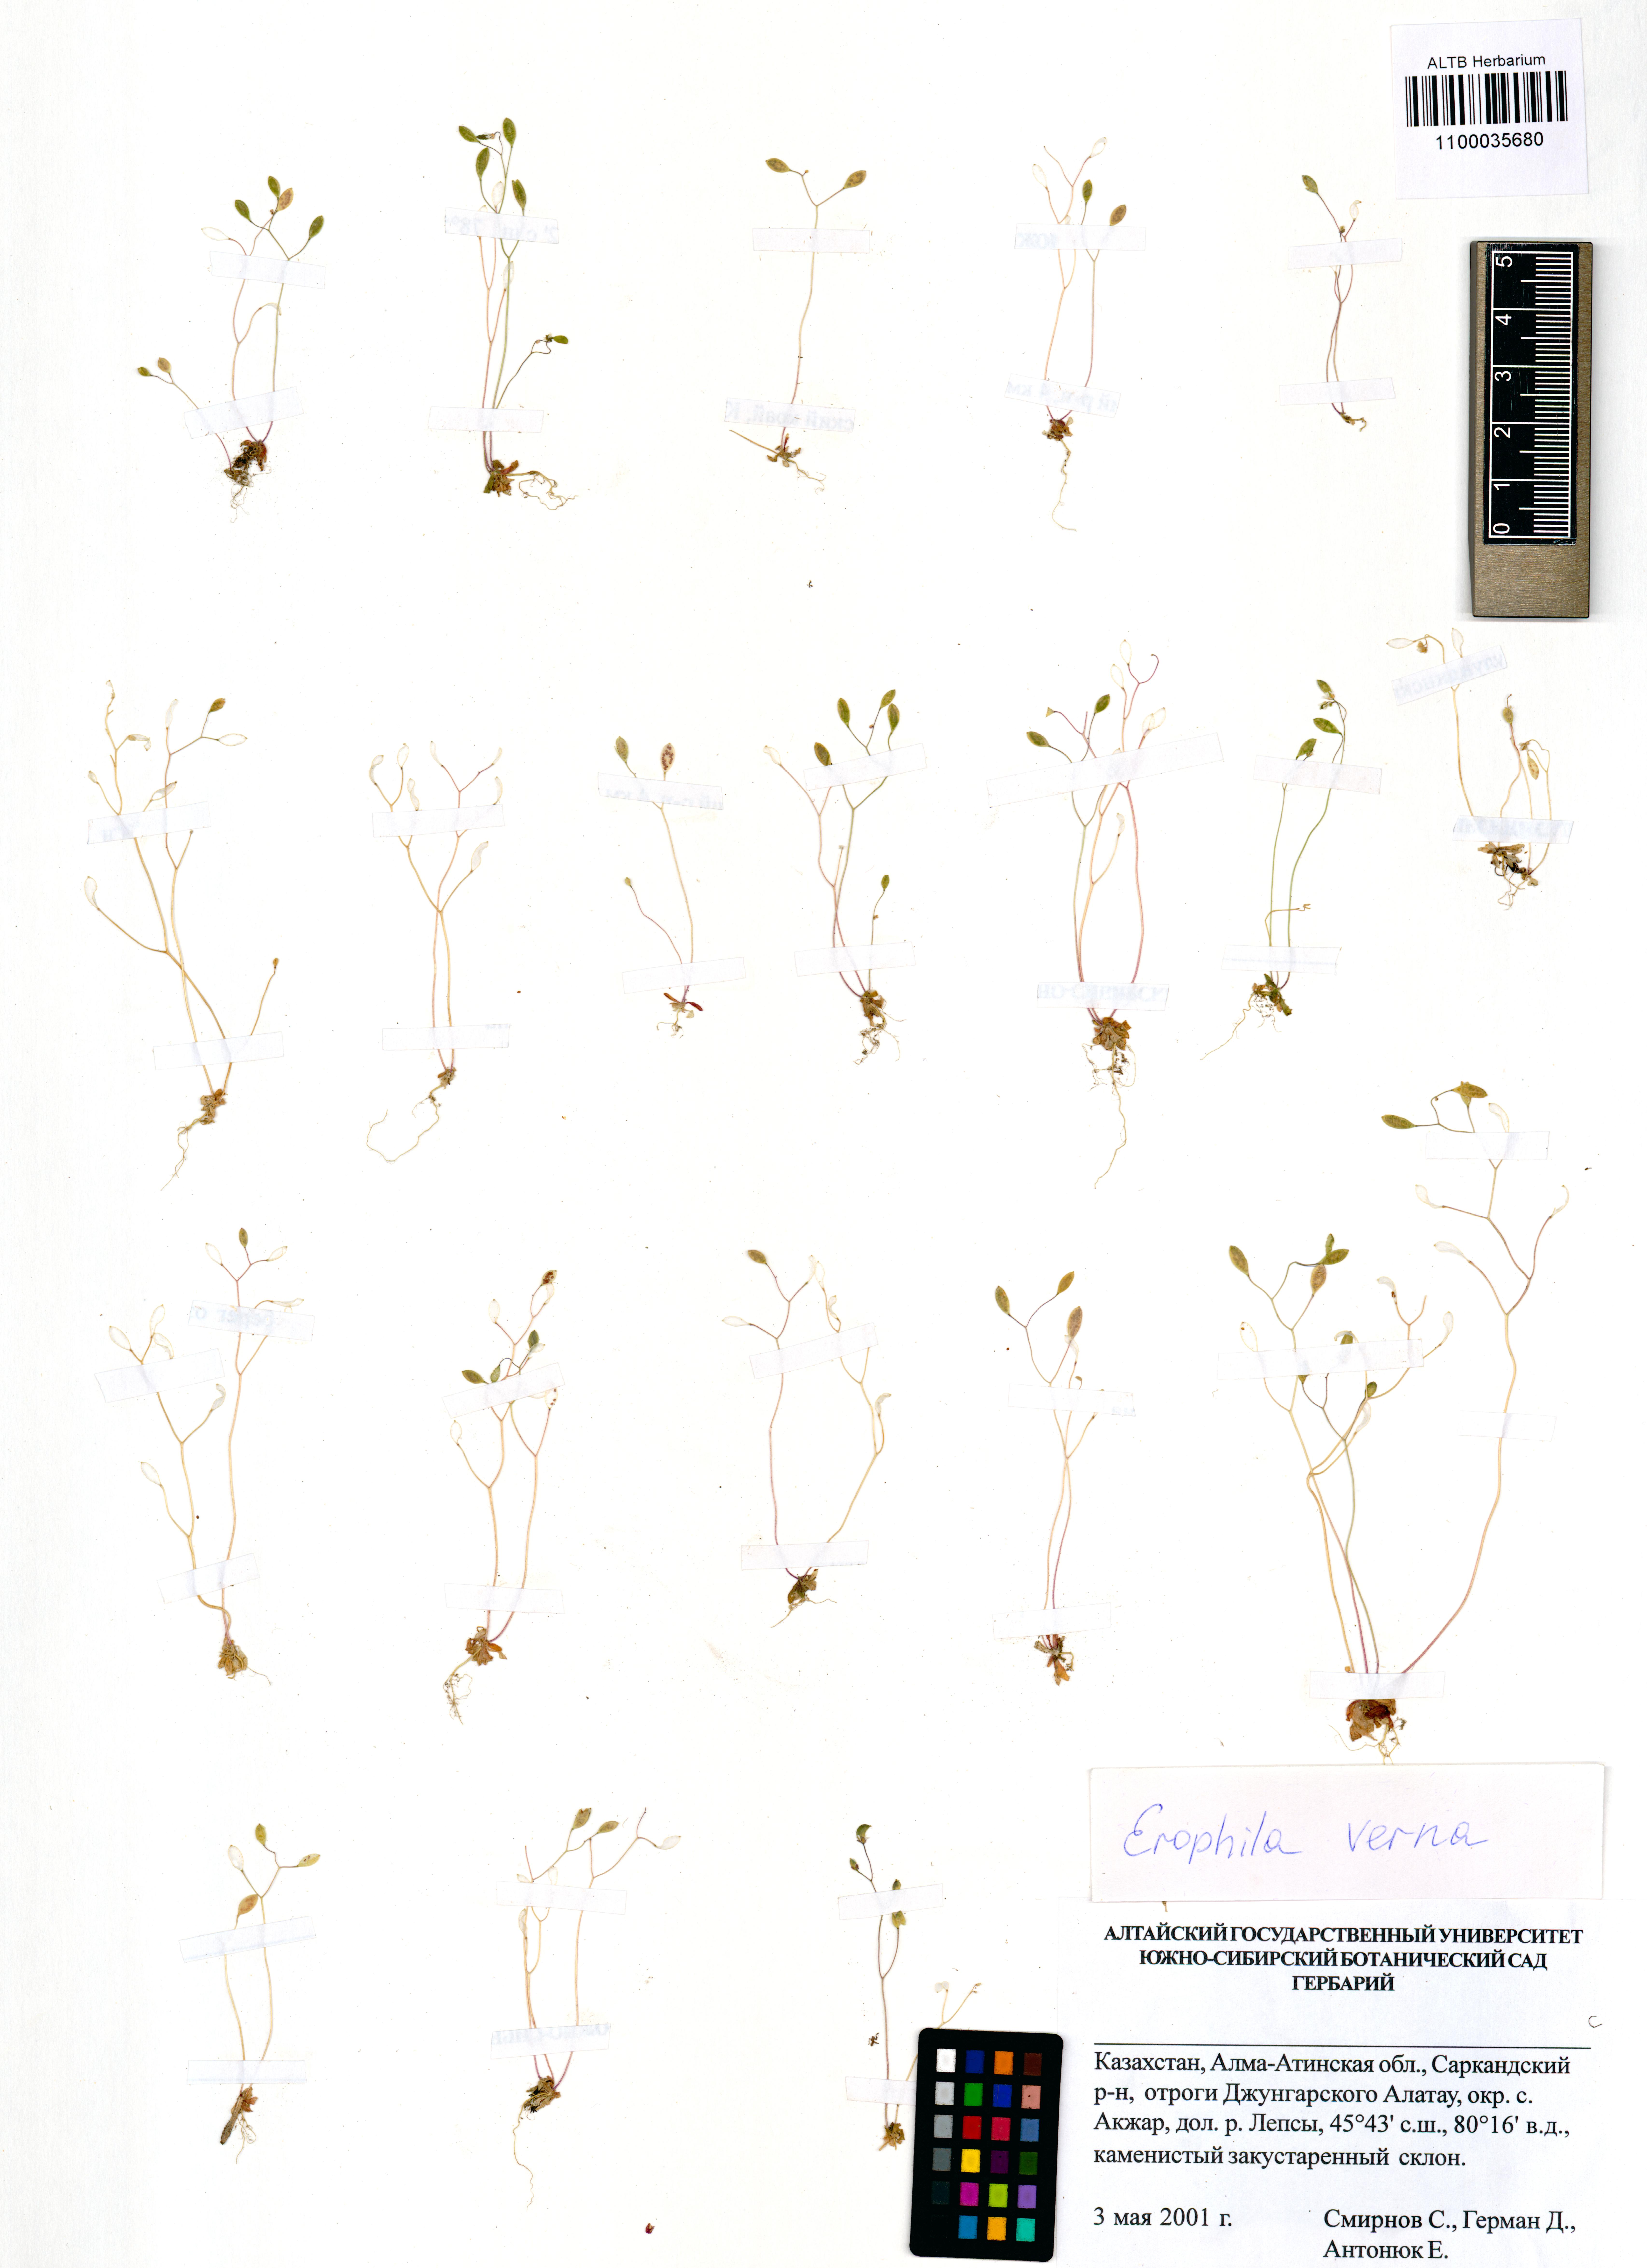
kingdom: Plantae
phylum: Tracheophyta
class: Magnoliopsida
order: Brassicales
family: Brassicaceae
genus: Draba
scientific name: Draba verna
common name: Spring draba
